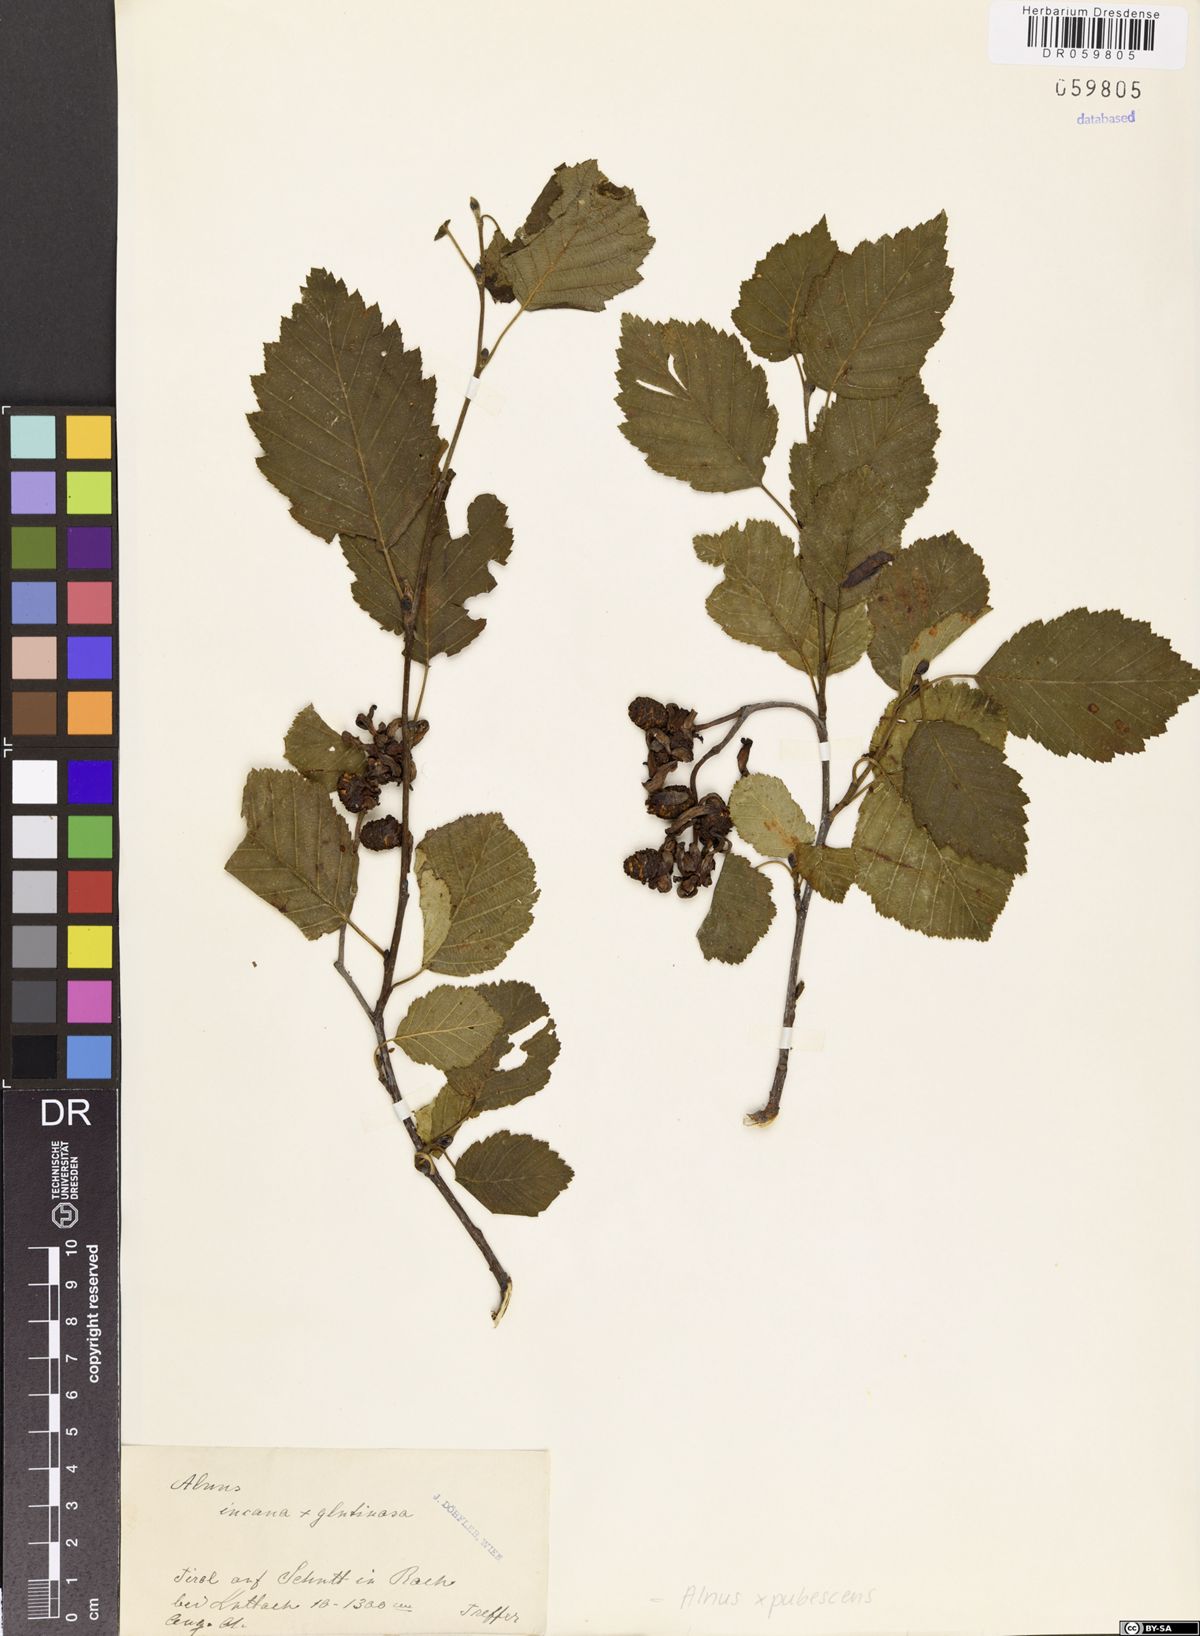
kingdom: Plantae
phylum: Tracheophyta
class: Magnoliopsida
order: Fagales
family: Betulaceae
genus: Alnus
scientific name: Alnus pubescens
